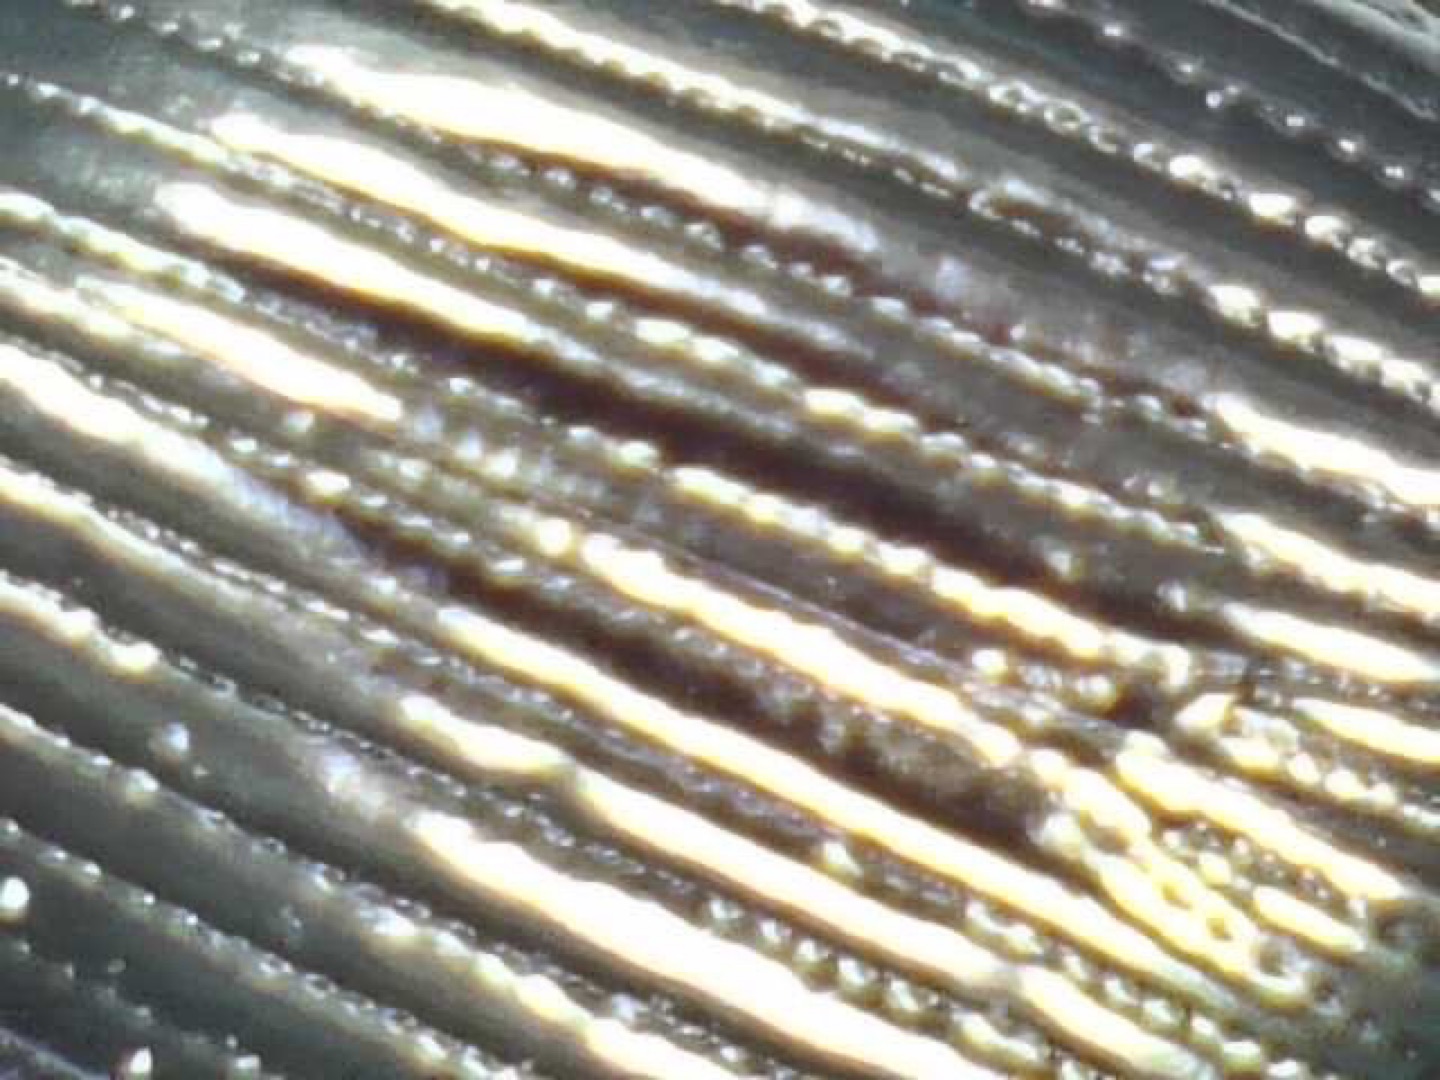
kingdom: Animalia
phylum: Arthropoda
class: Insecta
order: Coleoptera
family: Carabidae
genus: Nebria
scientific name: Nebria
